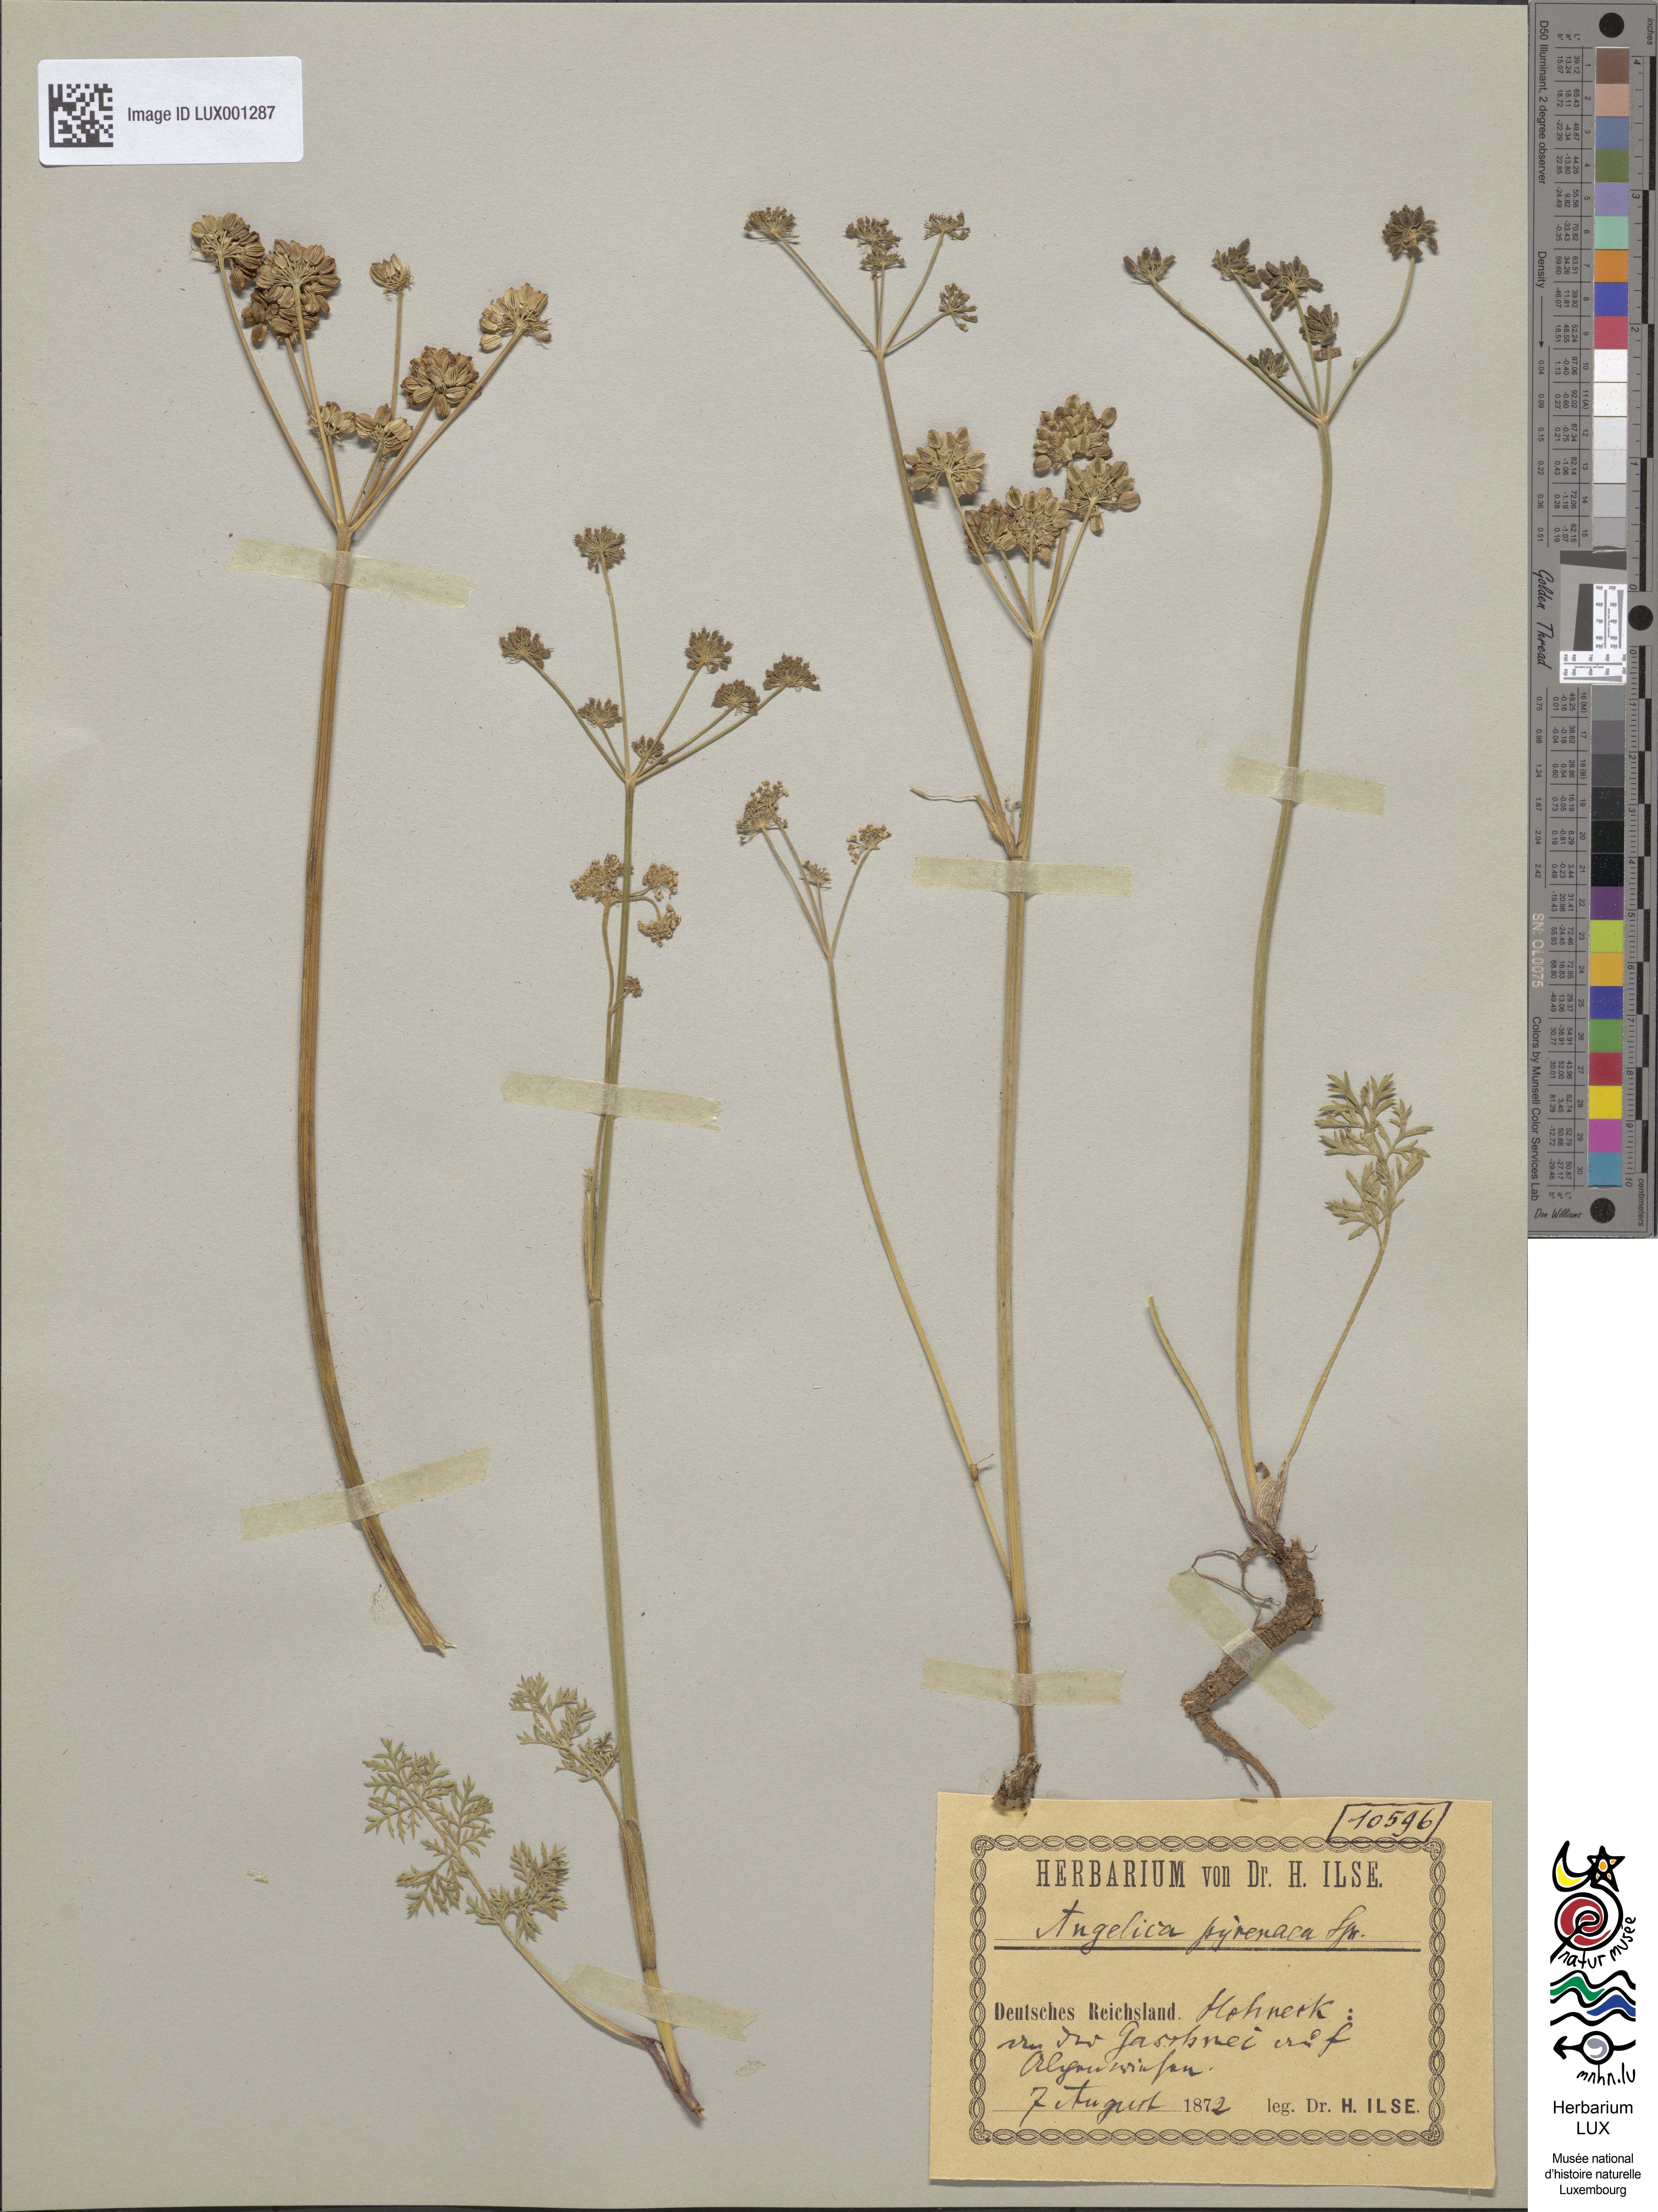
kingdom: Plantae
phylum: Tracheophyta
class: Magnoliopsida
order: Apiales
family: Apiaceae
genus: Epikeros
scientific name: Epikeros pyrenaeus
